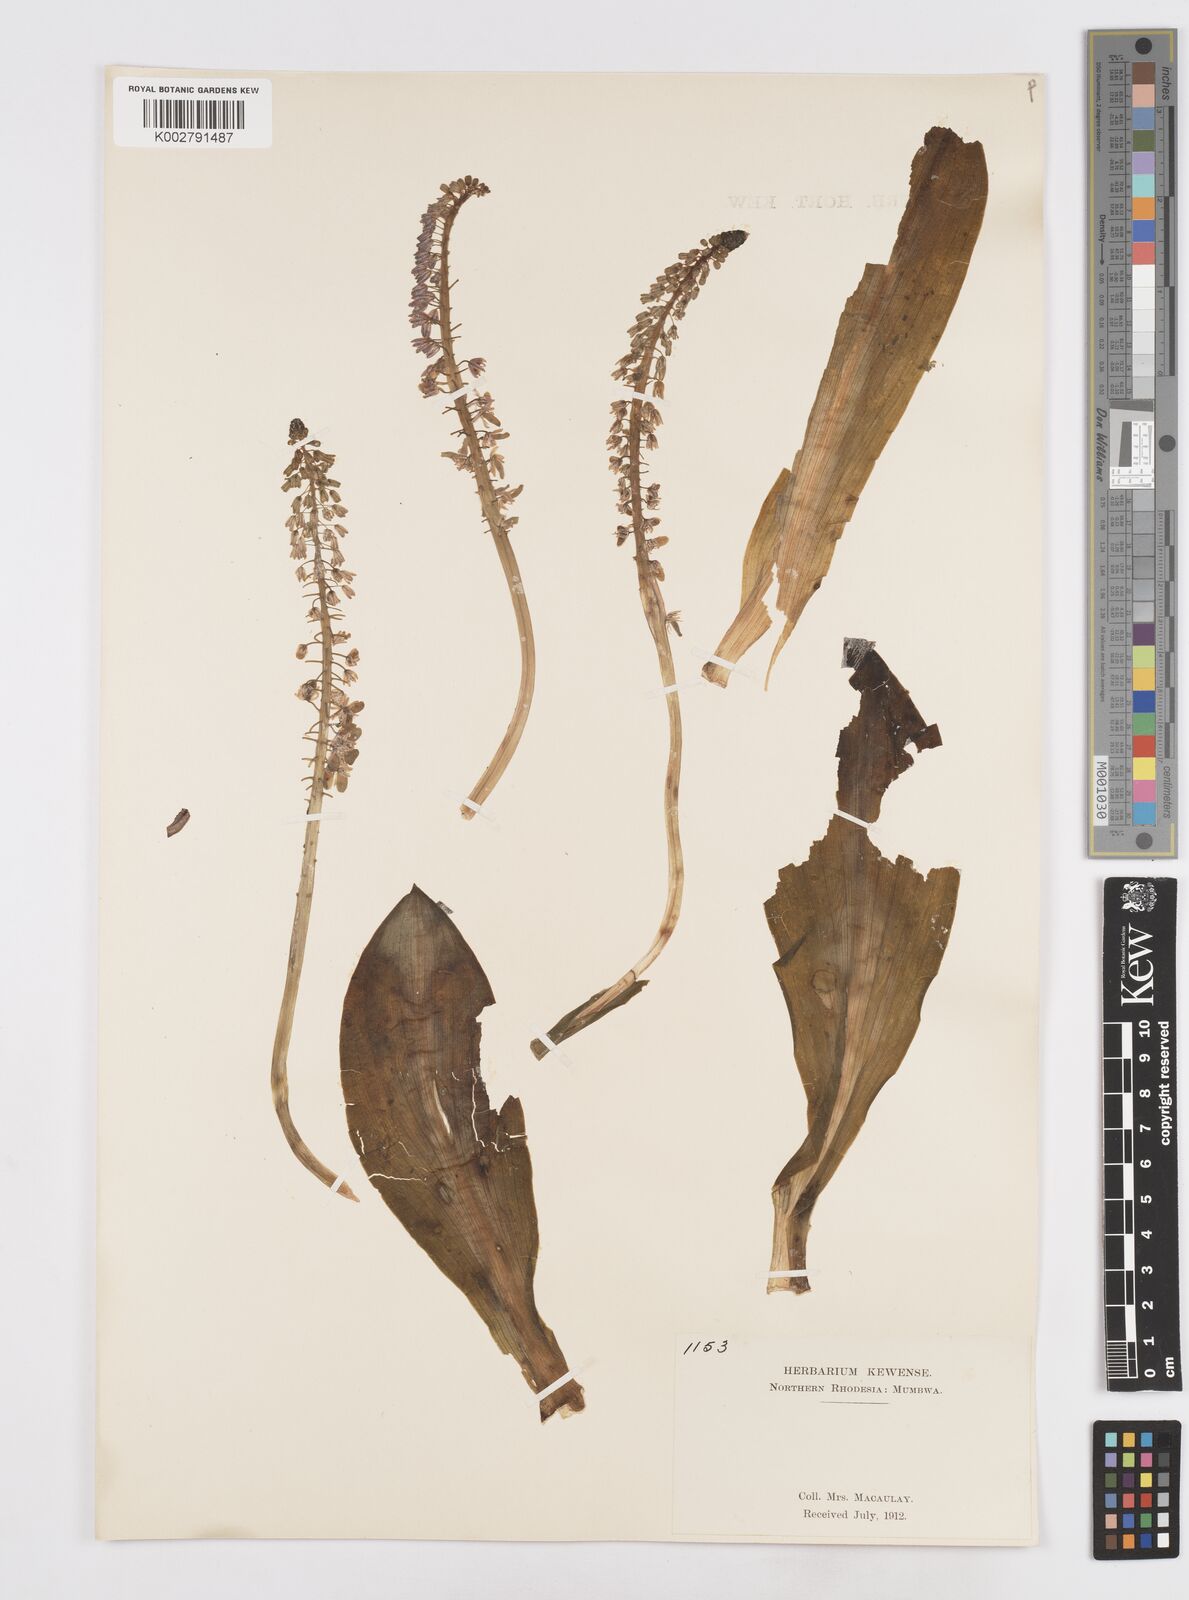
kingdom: Plantae
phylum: Tracheophyta
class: Liliopsida
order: Asparagales
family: Asparagaceae
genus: Scilla
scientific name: Scilla
